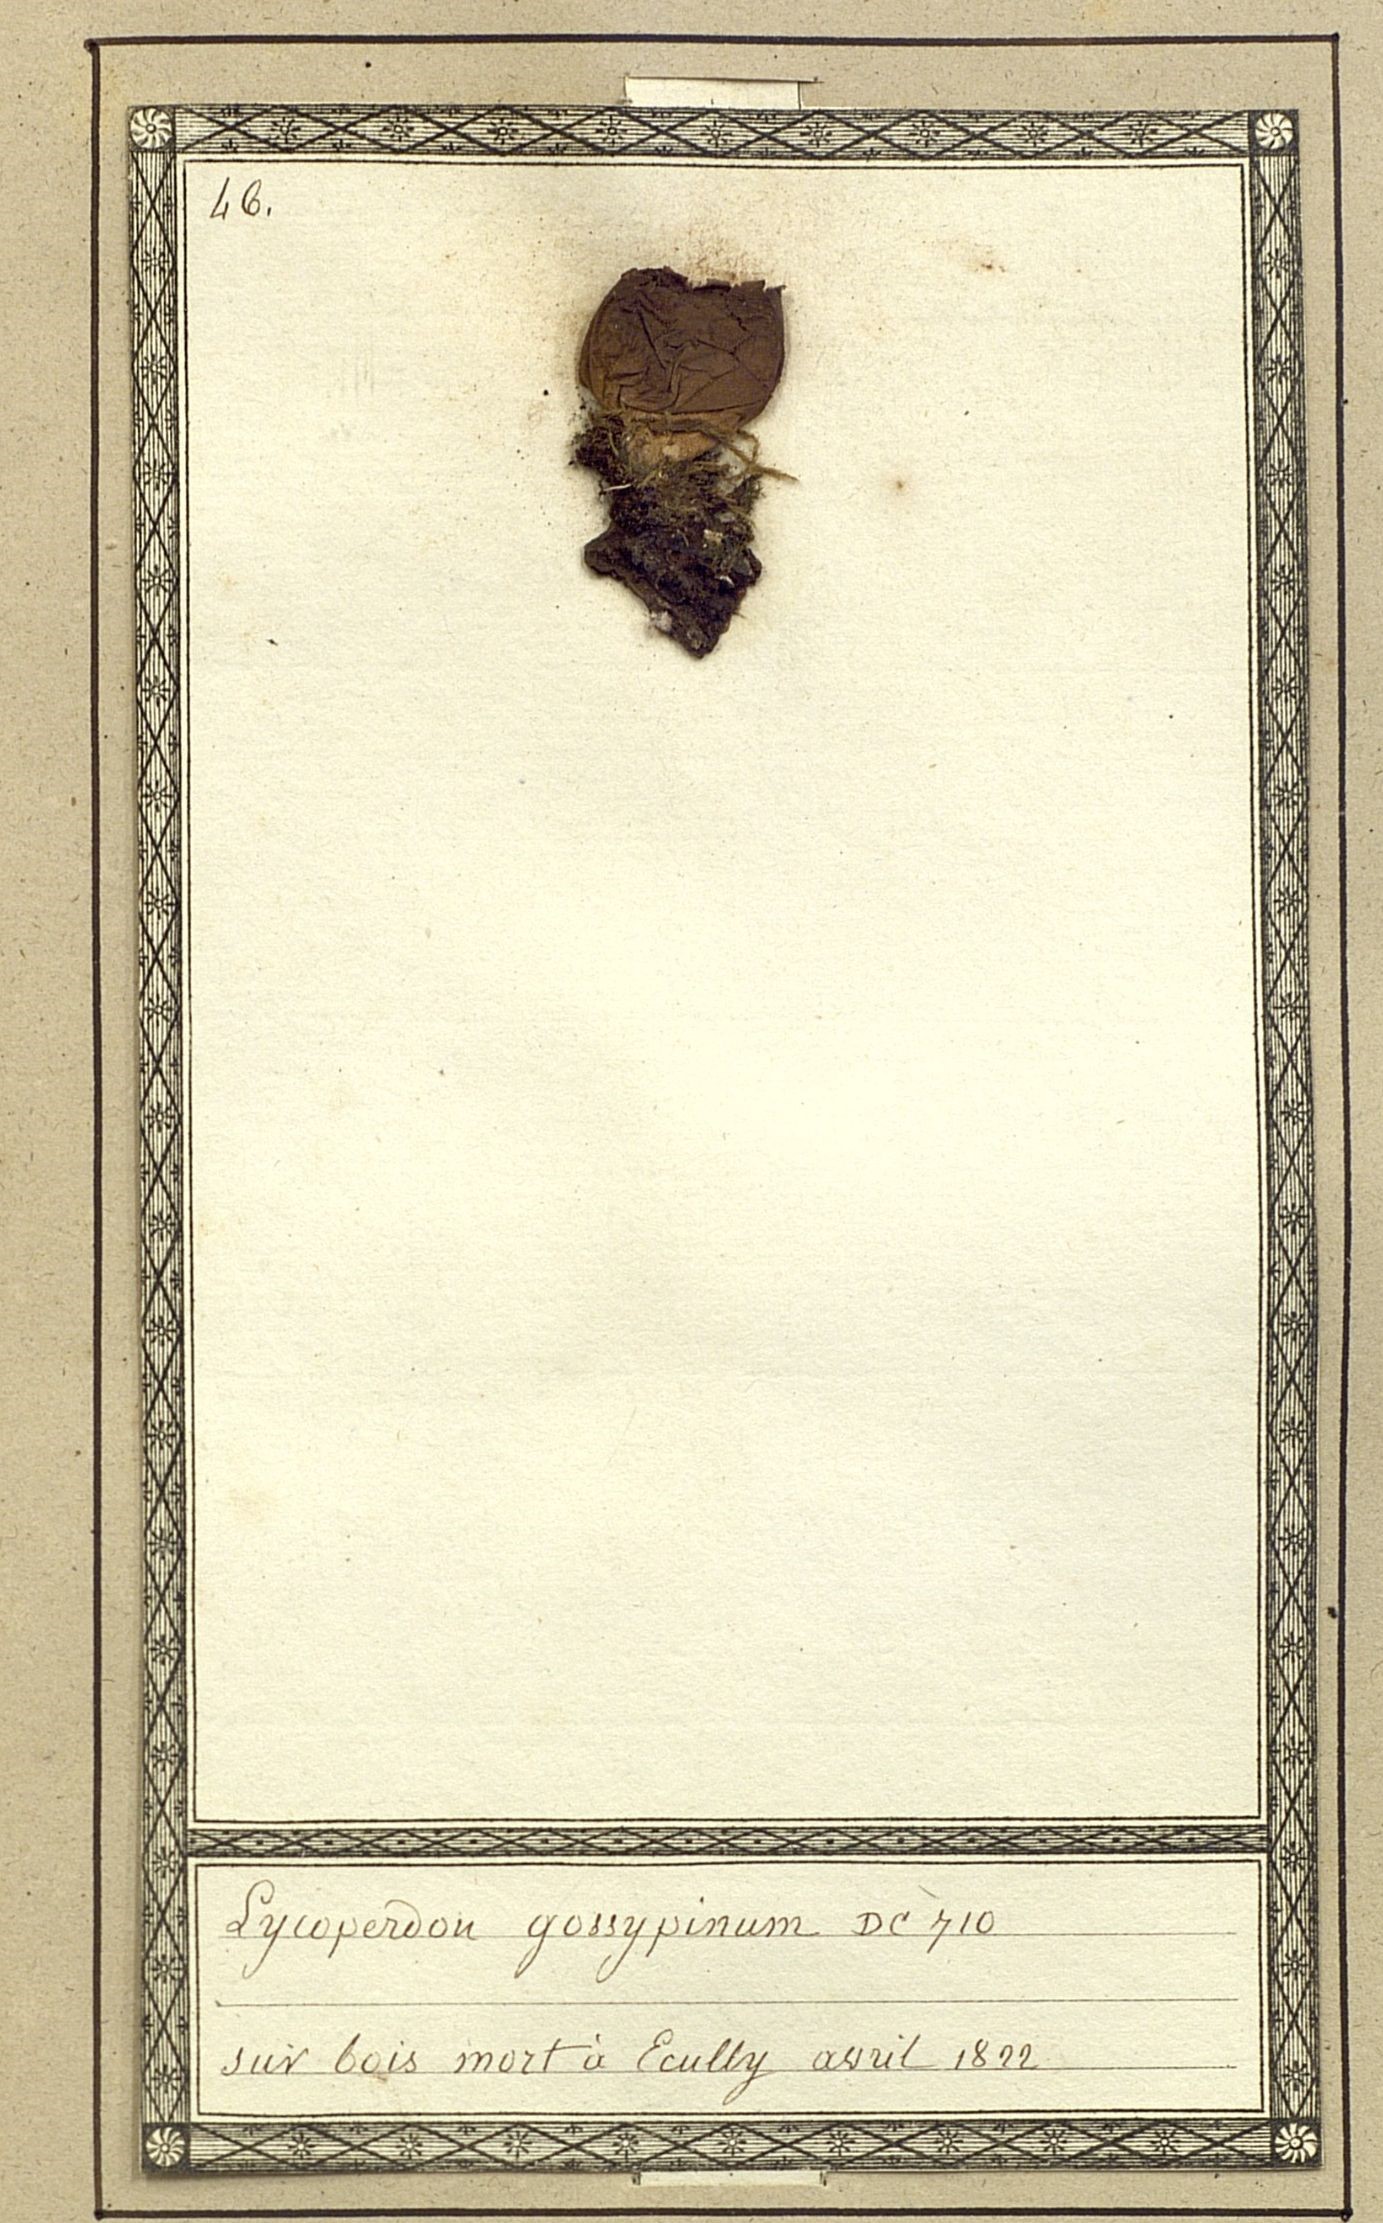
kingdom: Fungi
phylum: Basidiomycota
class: Agaricomycetes
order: Agaricales
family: Agaricaceae
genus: Lycoperdon
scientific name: Lycoperdon gossypinum
